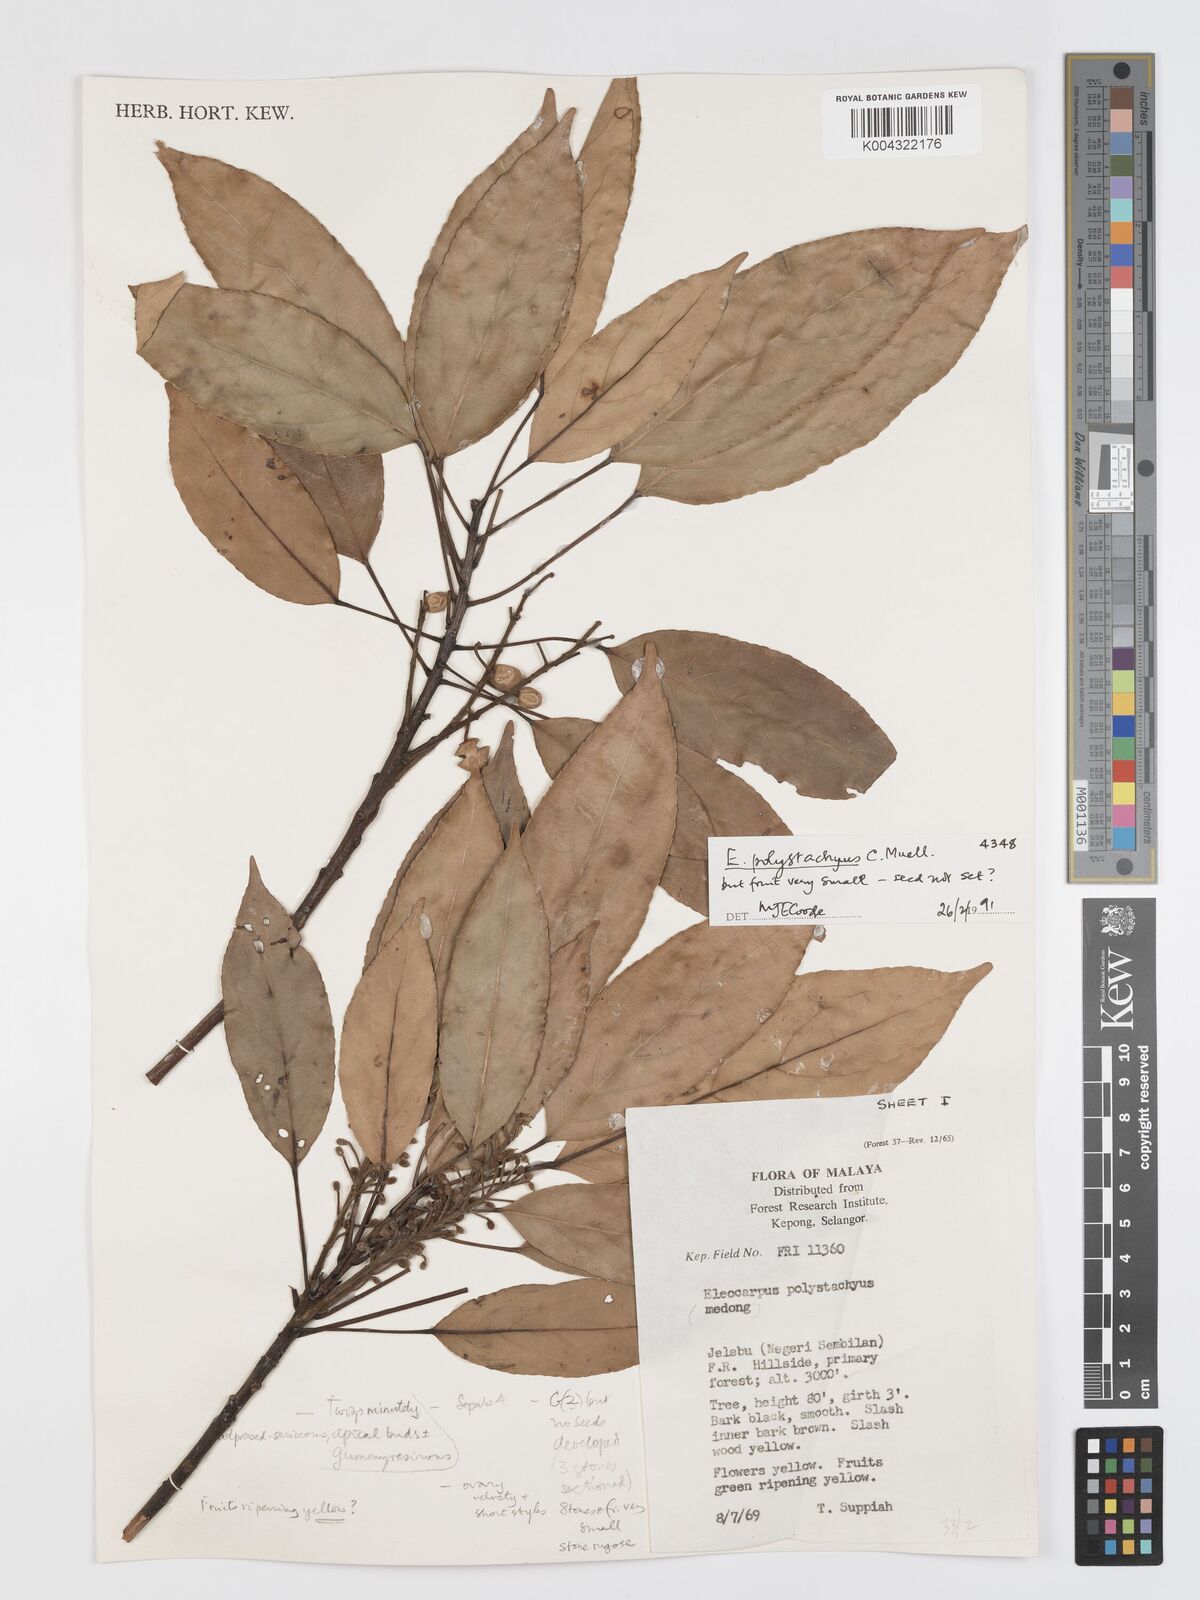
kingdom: Plantae
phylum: Tracheophyta
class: Magnoliopsida
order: Oxalidales
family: Elaeocarpaceae
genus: Elaeocarpus
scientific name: Elaeocarpus polystachyus
